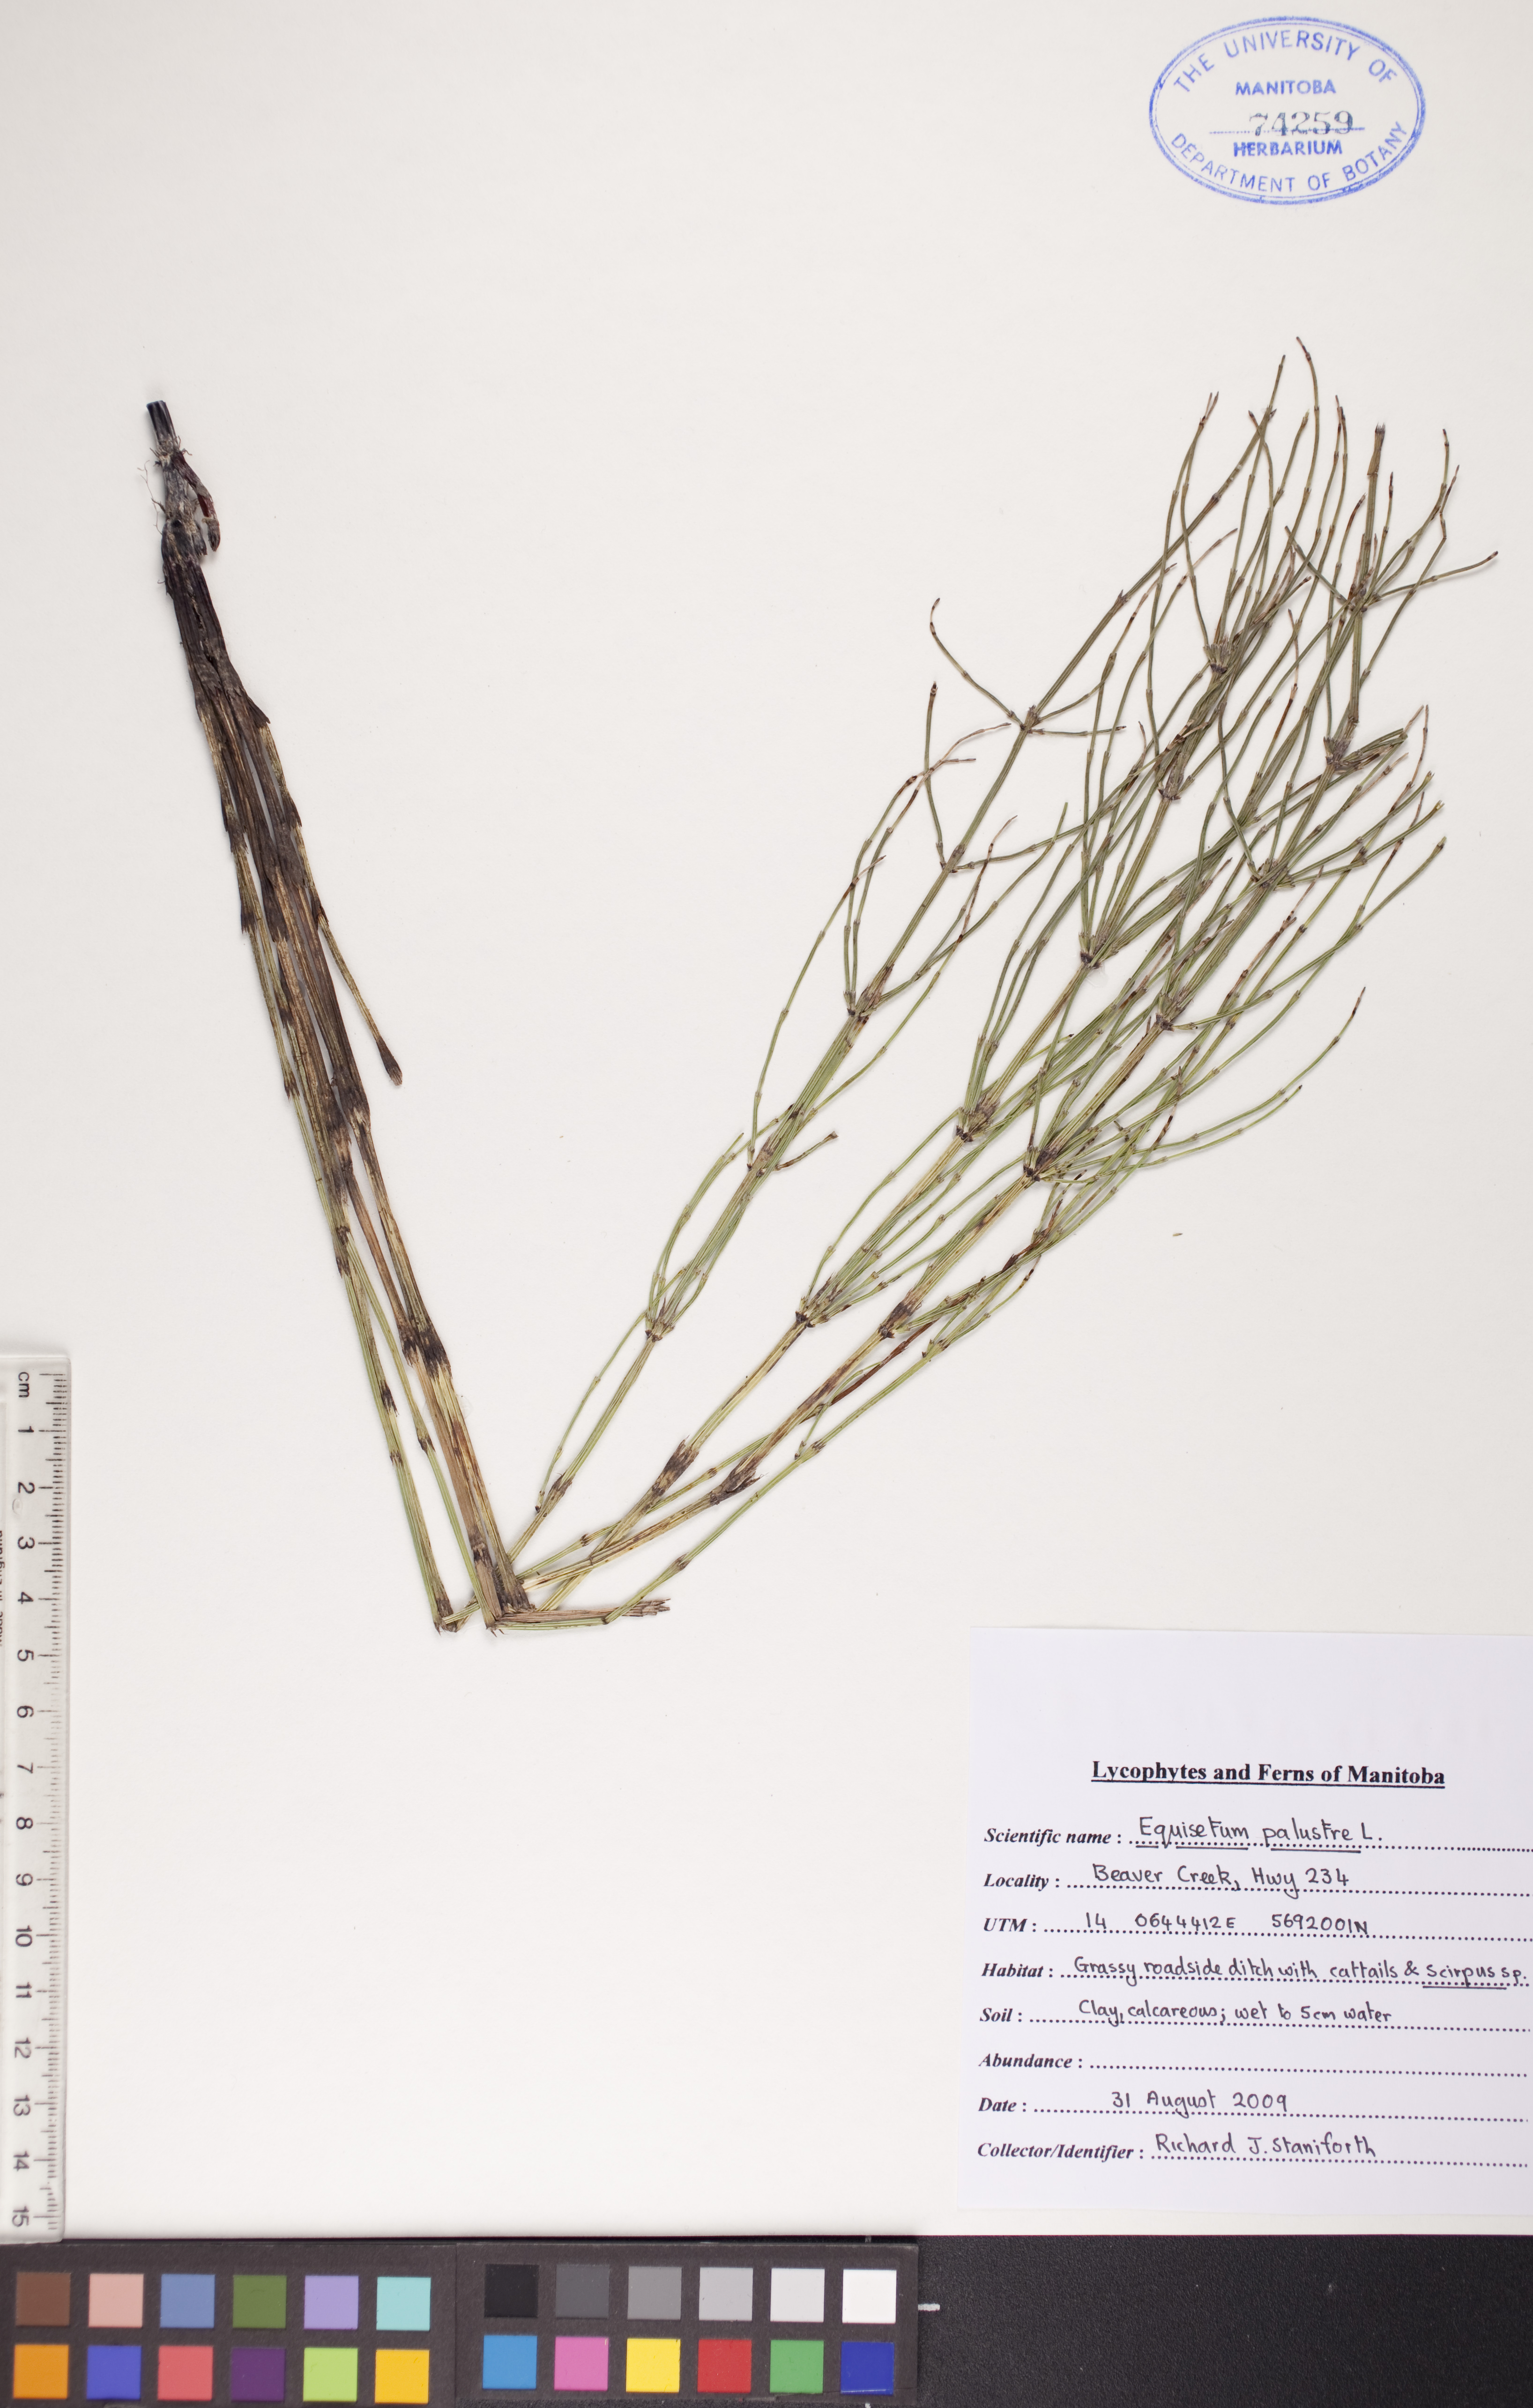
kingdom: Plantae
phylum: Tracheophyta
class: Polypodiopsida
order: Equisetales
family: Equisetaceae
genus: Equisetum
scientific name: Equisetum palustre
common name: Marsh horsetail
